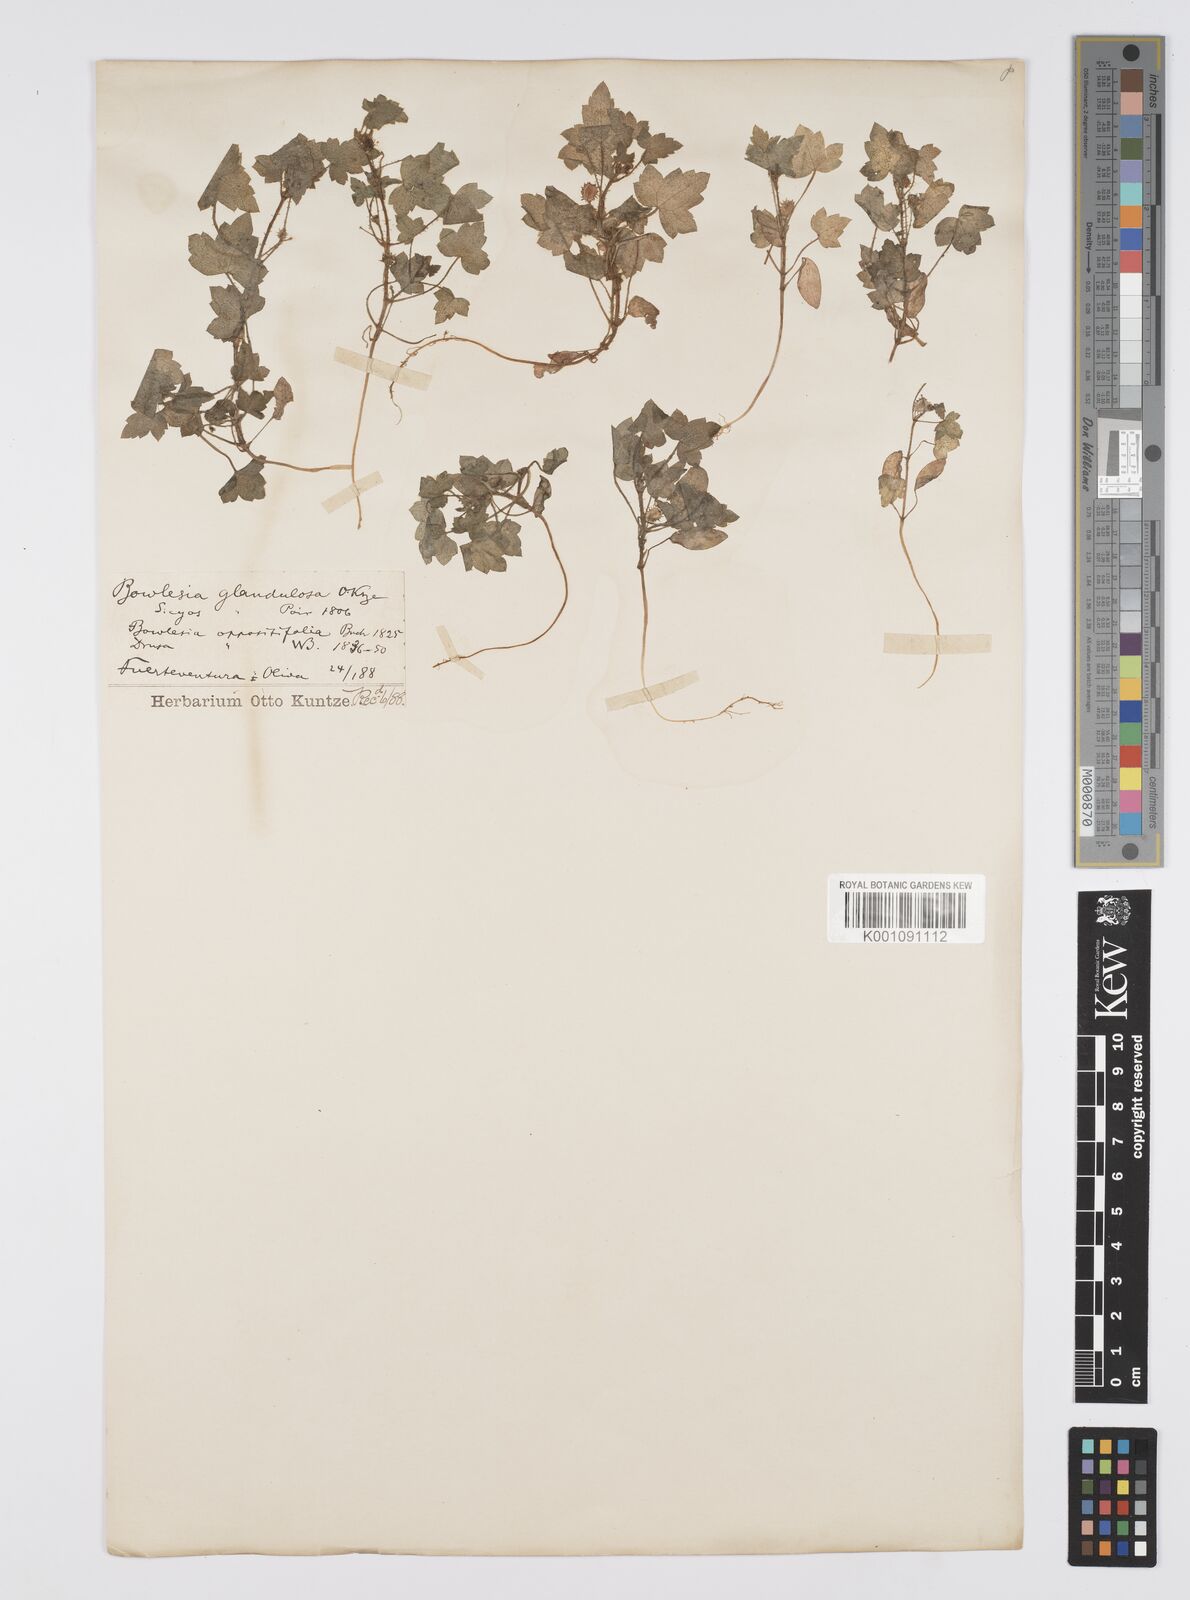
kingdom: Plantae
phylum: Tracheophyta
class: Magnoliopsida
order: Apiales
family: Apiaceae
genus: Drusa
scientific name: Drusa glandulosa
